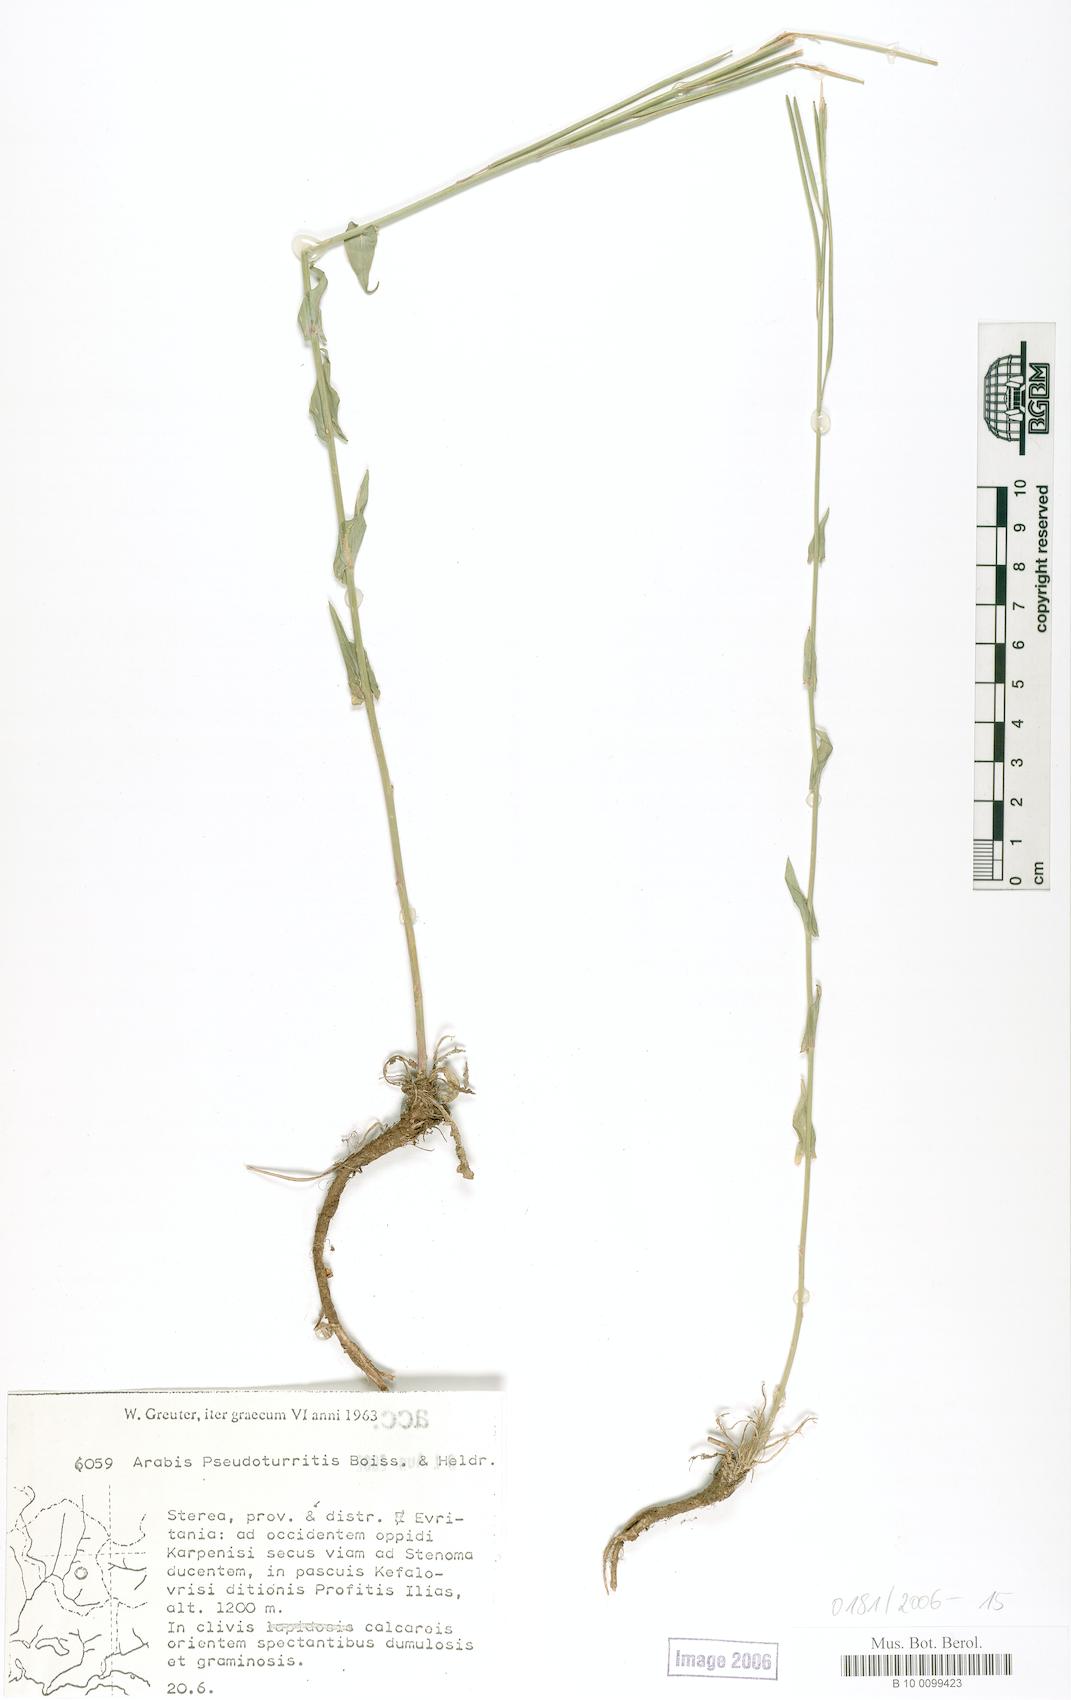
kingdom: Plantae
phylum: Tracheophyta
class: Magnoliopsida
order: Brassicales
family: Brassicaceae
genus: Turritis
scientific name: Turritis glabra
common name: Tower rockcress
